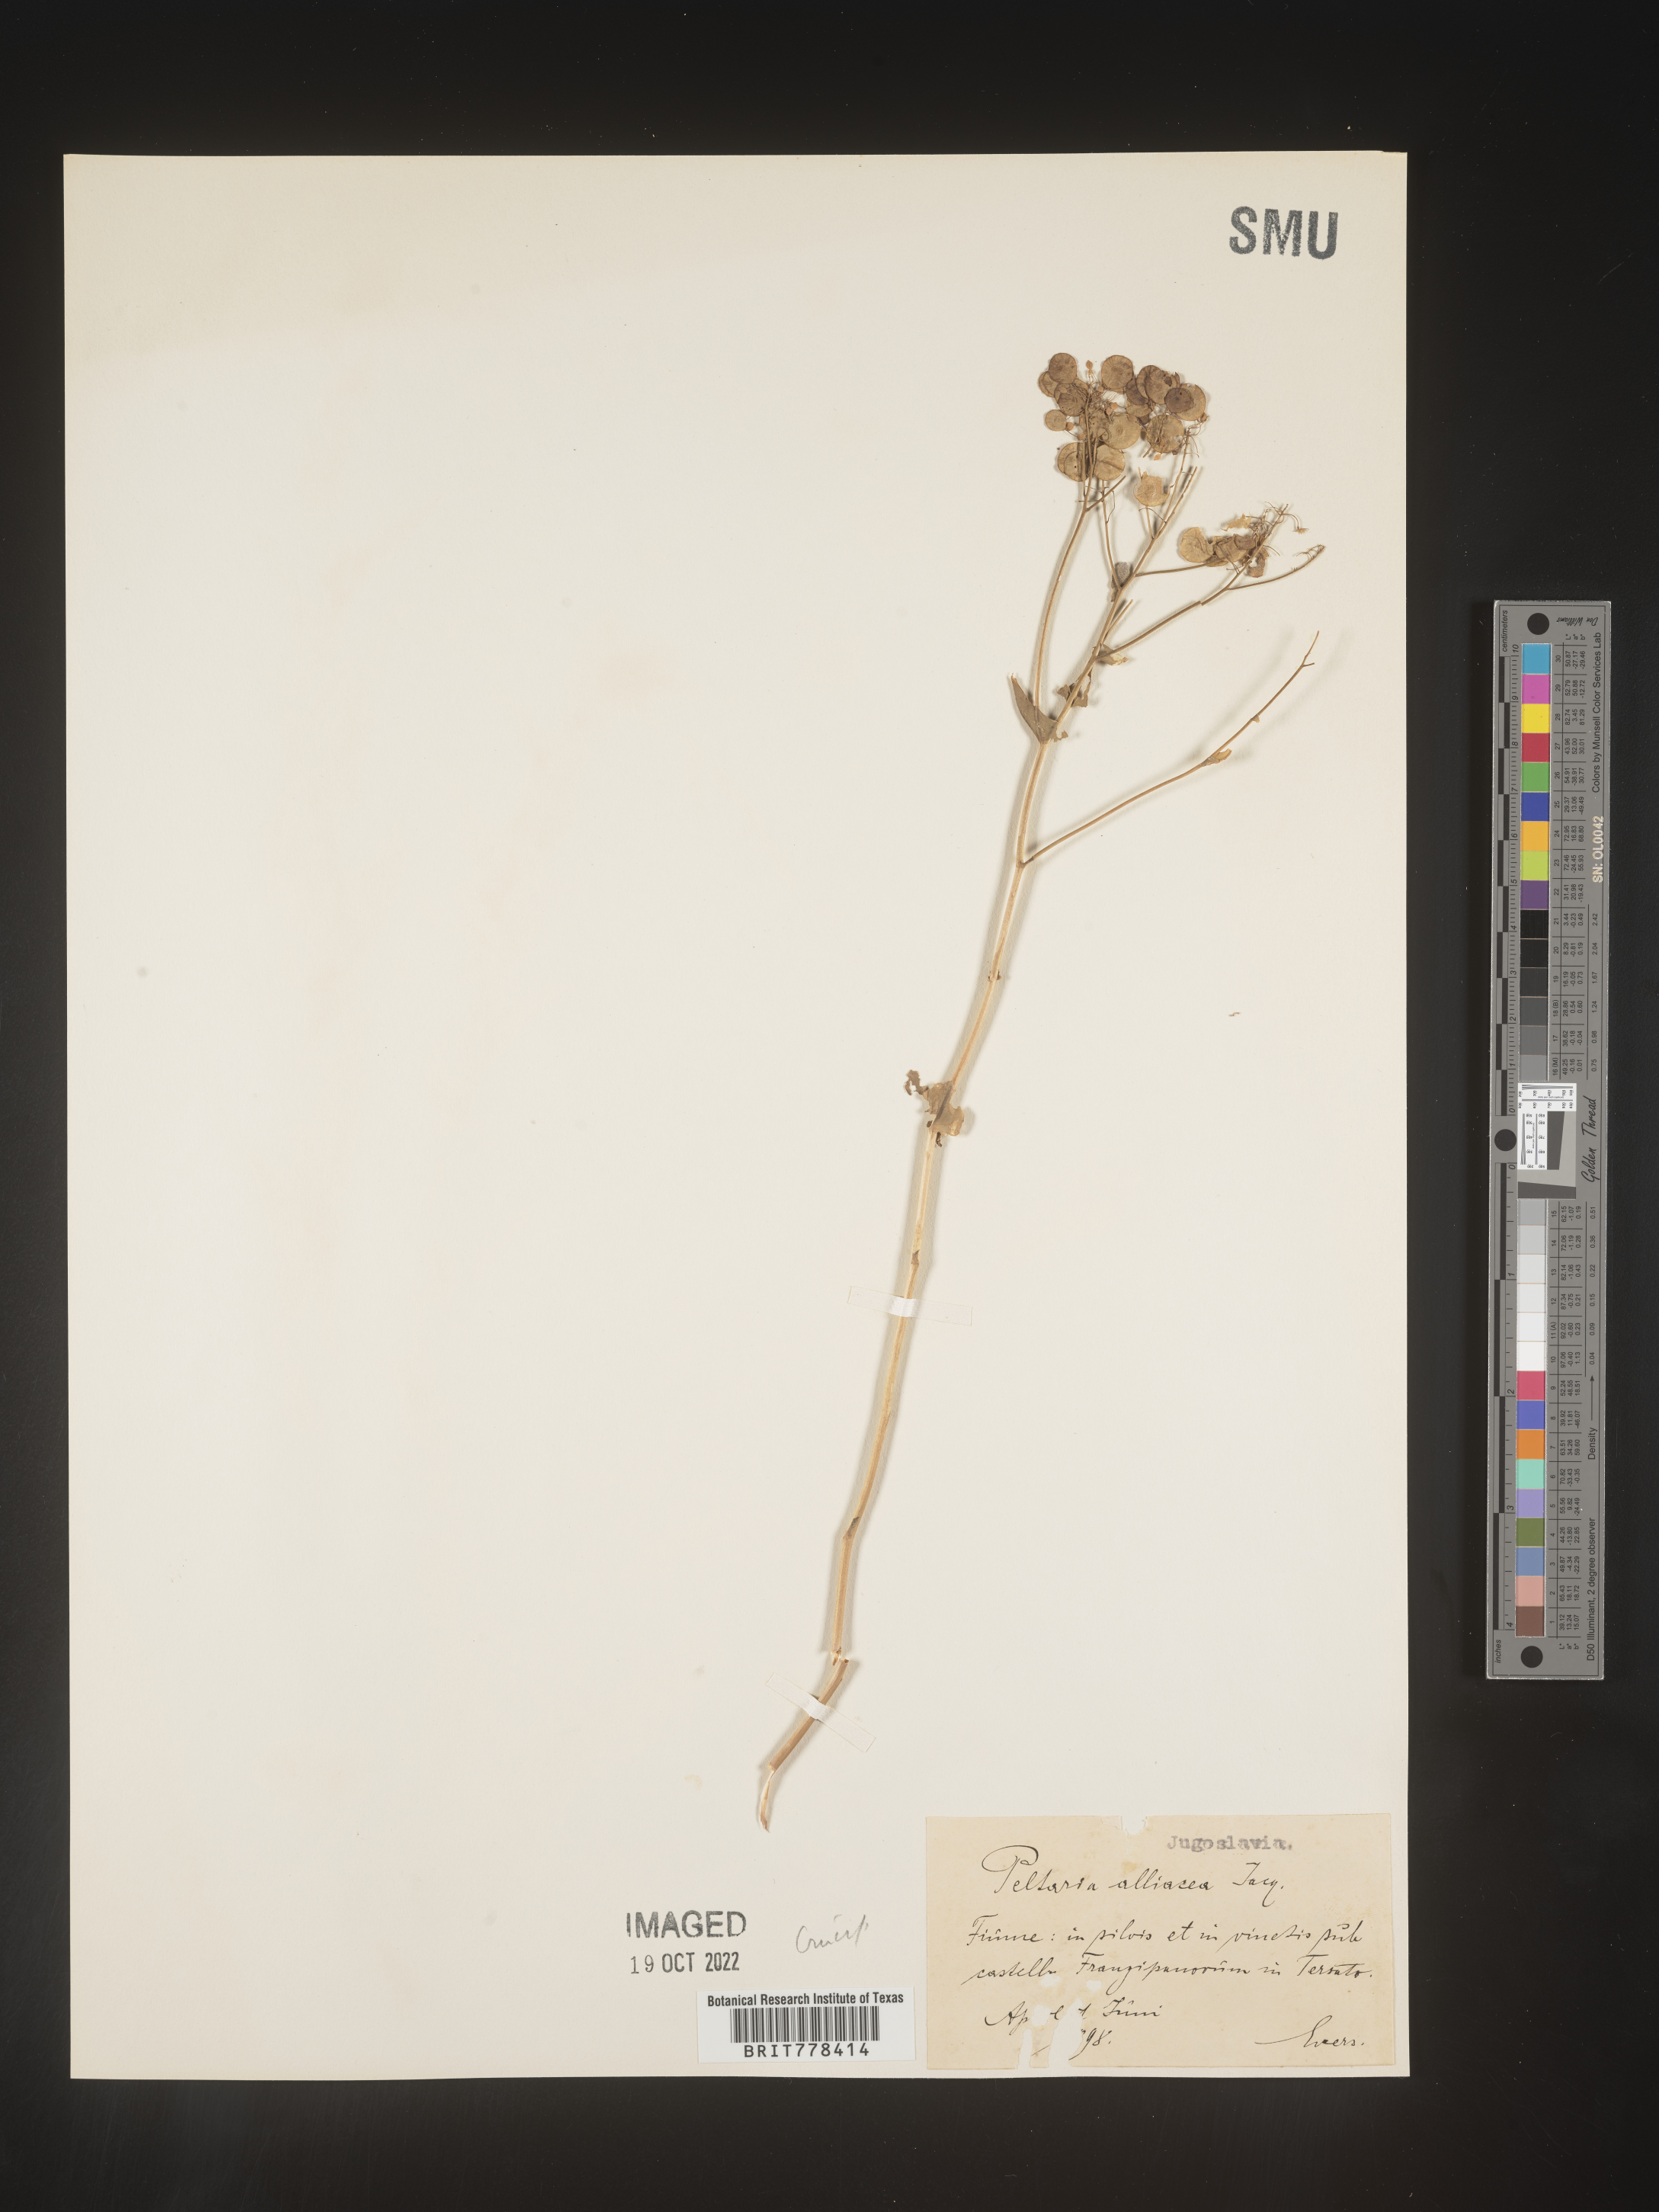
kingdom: Plantae
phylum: Tracheophyta
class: Magnoliopsida
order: Brassicales
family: Brassicaceae
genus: Peltaria
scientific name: Peltaria
